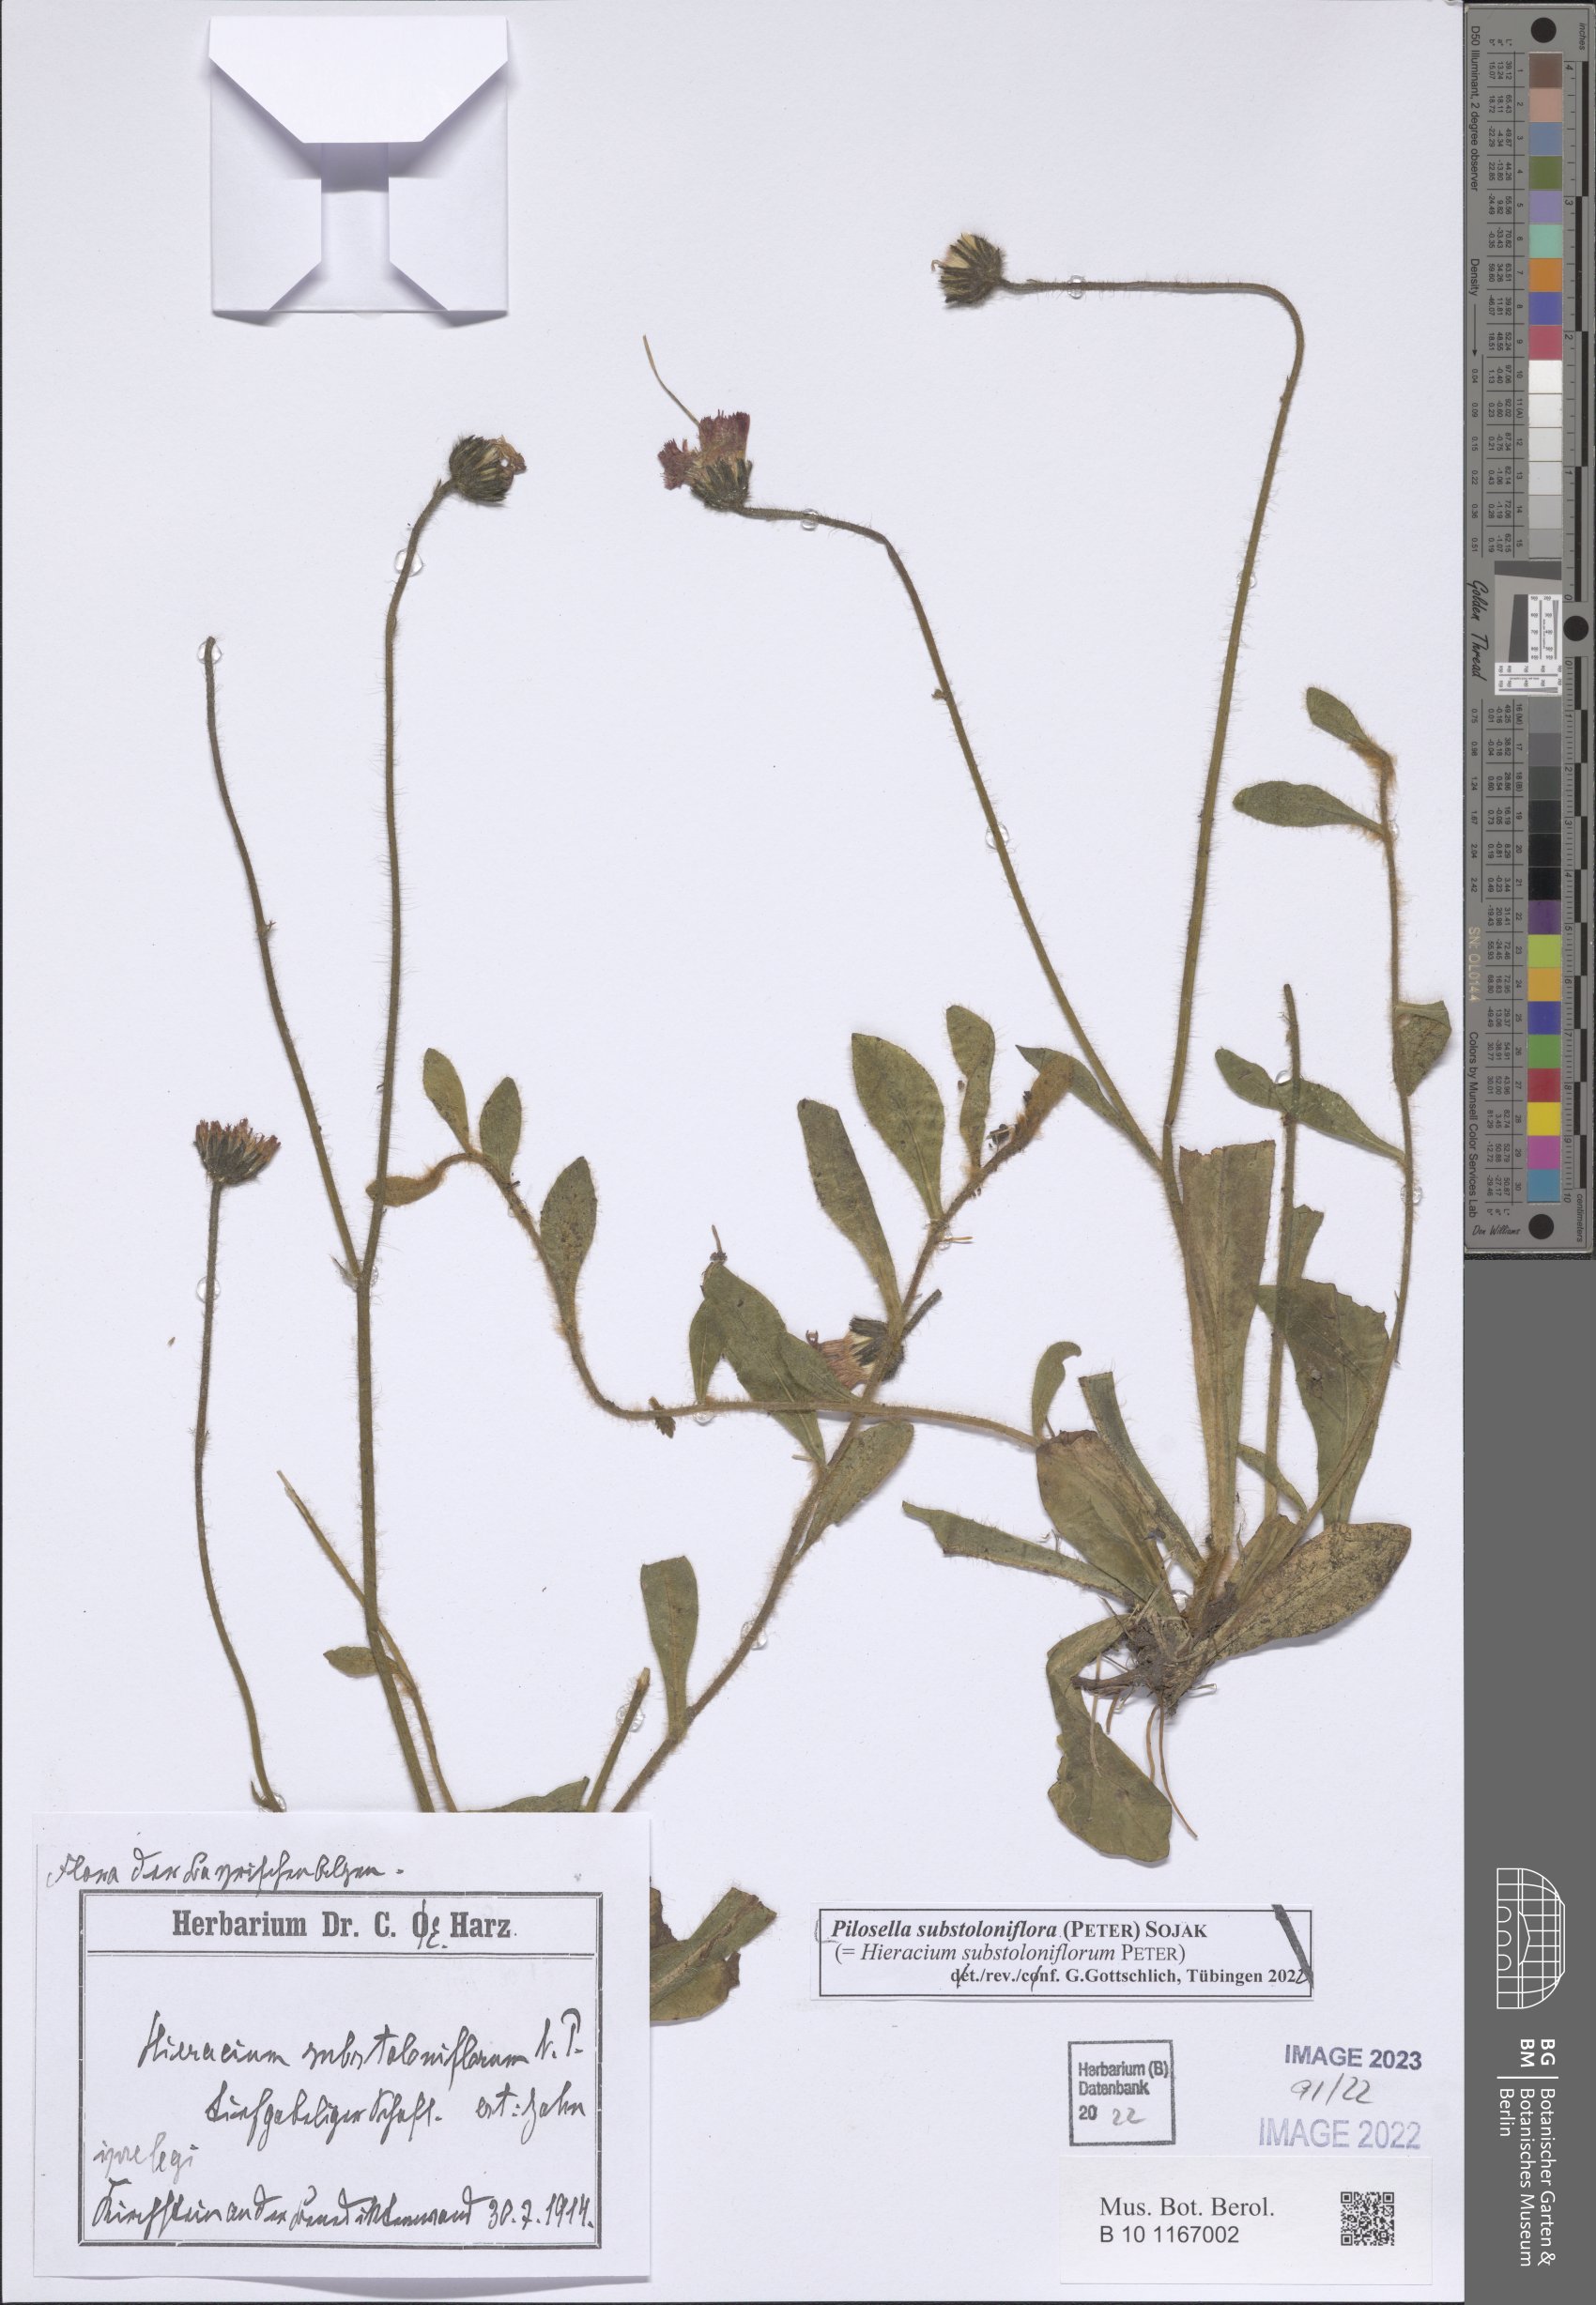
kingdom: Plantae
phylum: Tracheophyta
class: Magnoliopsida
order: Asterales
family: Asteraceae
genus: Pilosella
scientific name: Pilosella substoloniflora
